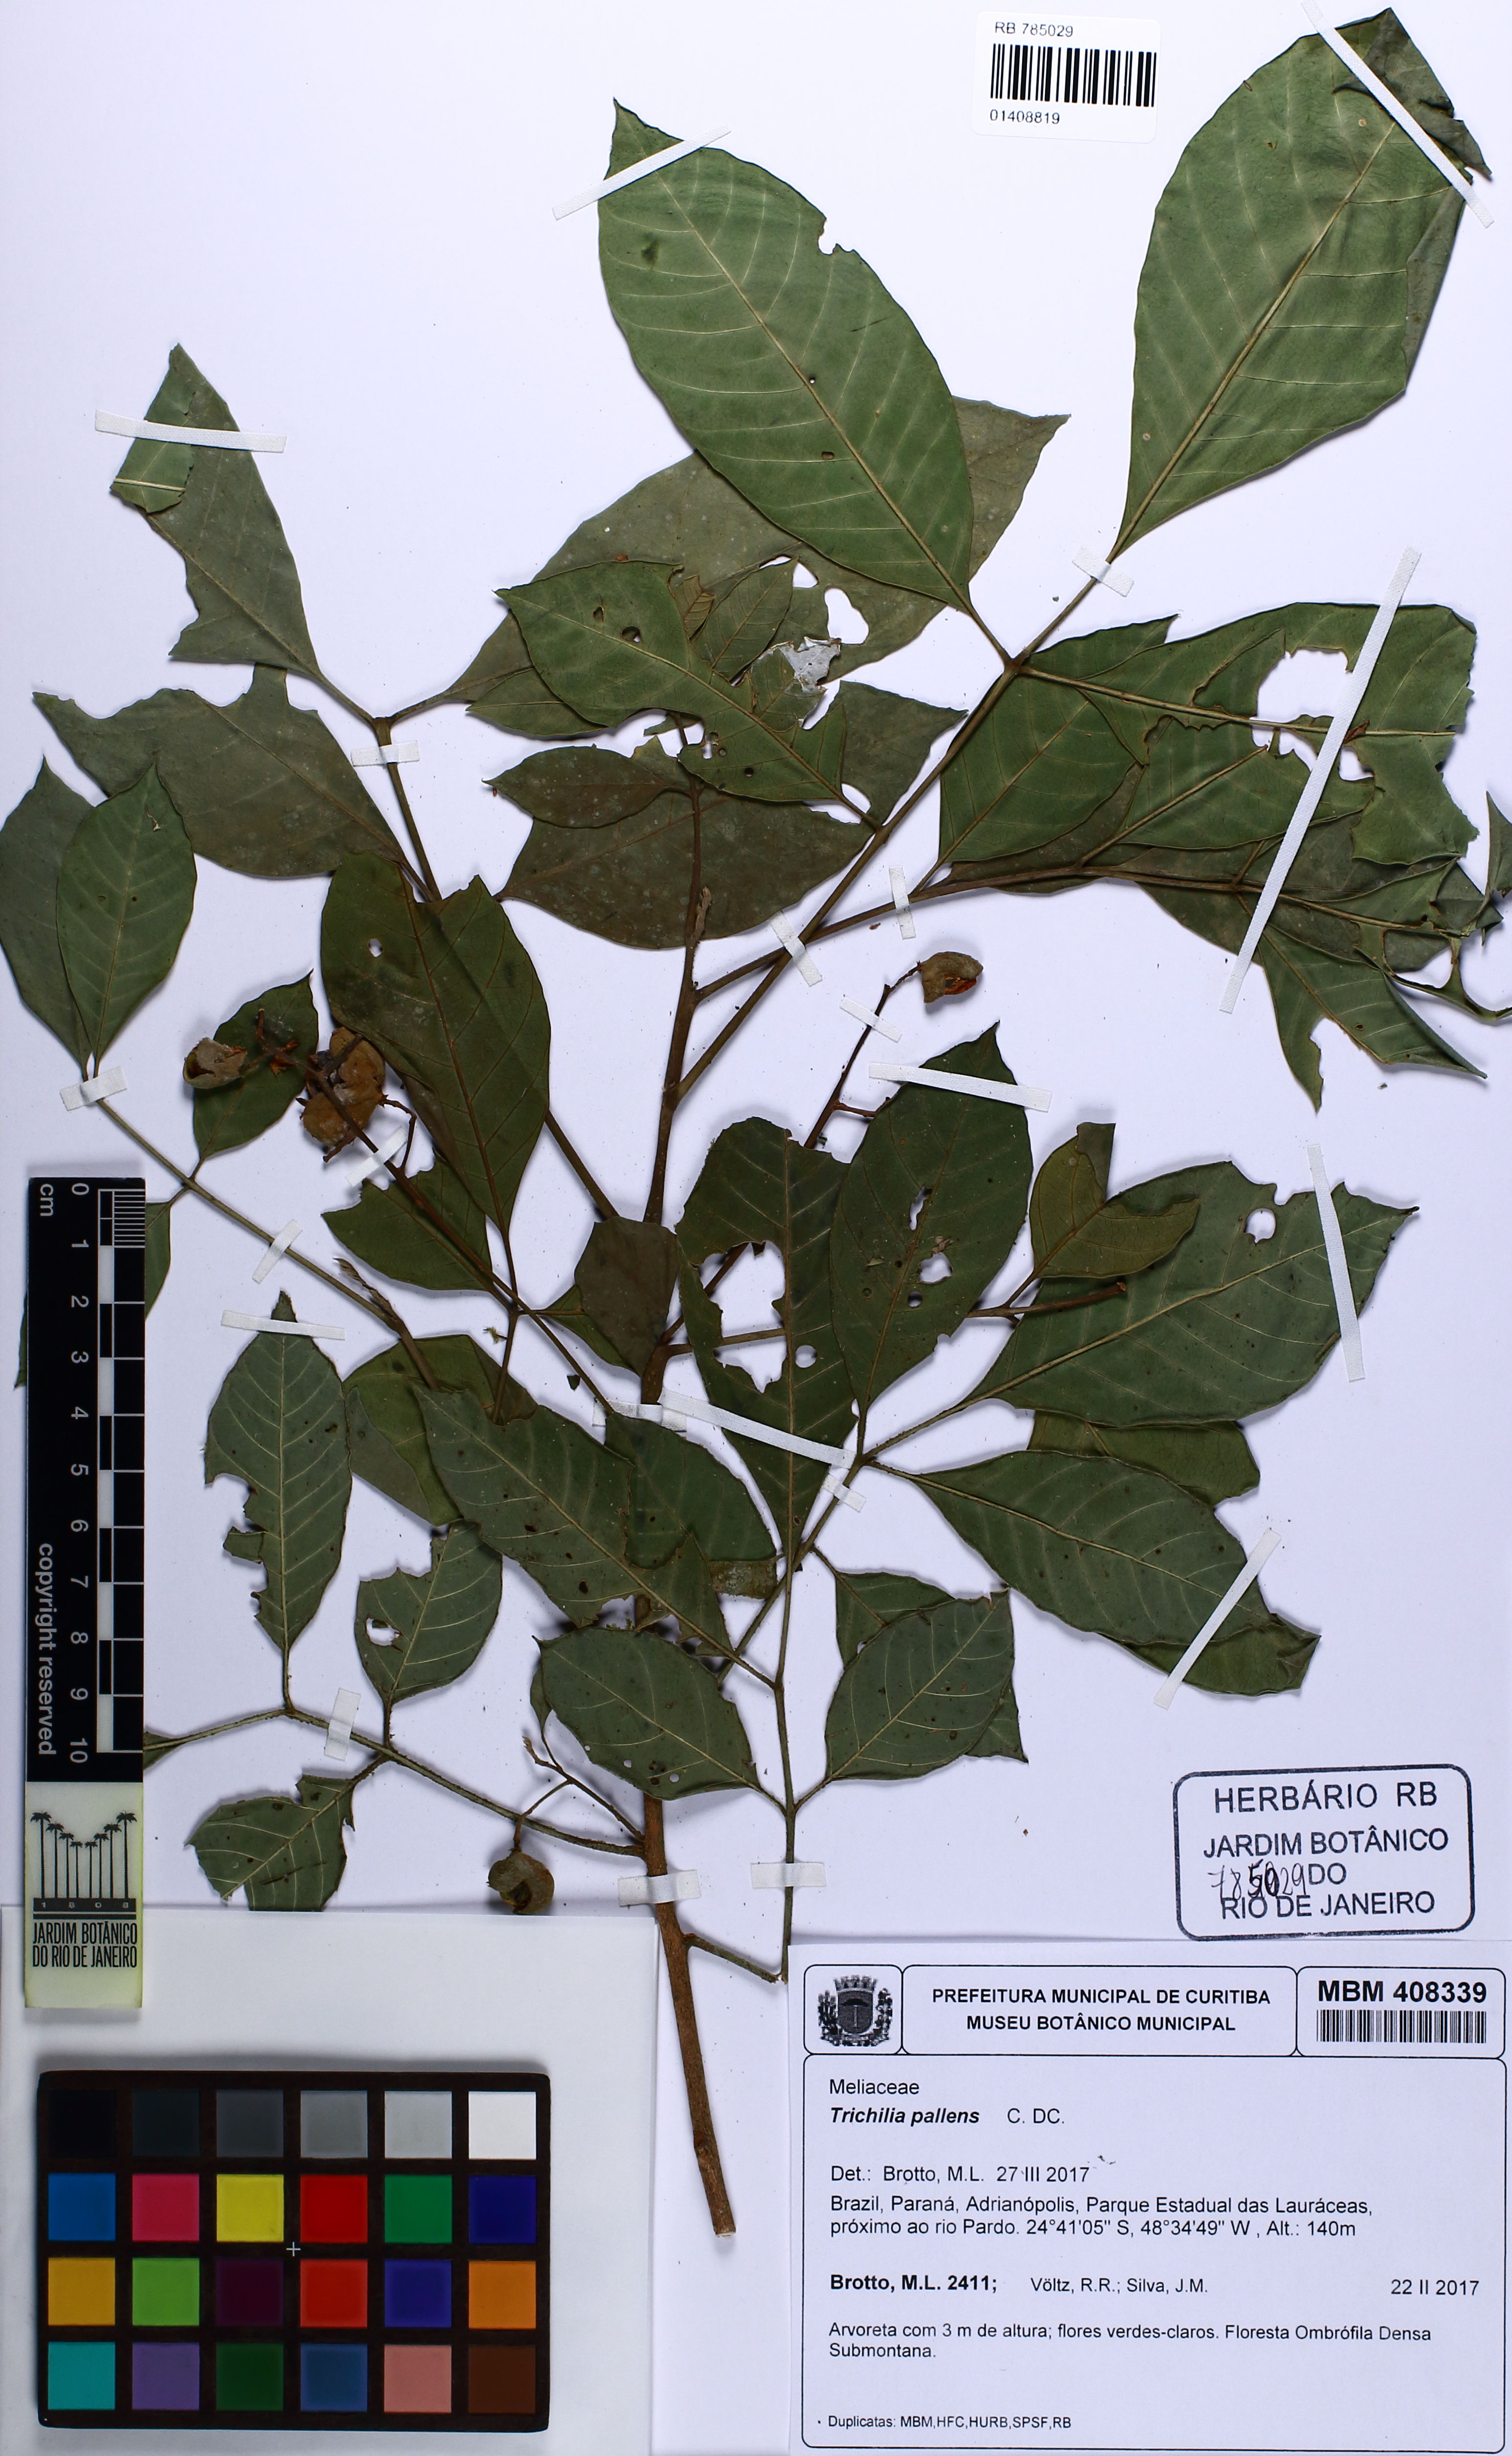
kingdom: Plantae
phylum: Tracheophyta
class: Magnoliopsida
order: Sapindales
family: Meliaceae
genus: Trichilia
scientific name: Trichilia pallens
